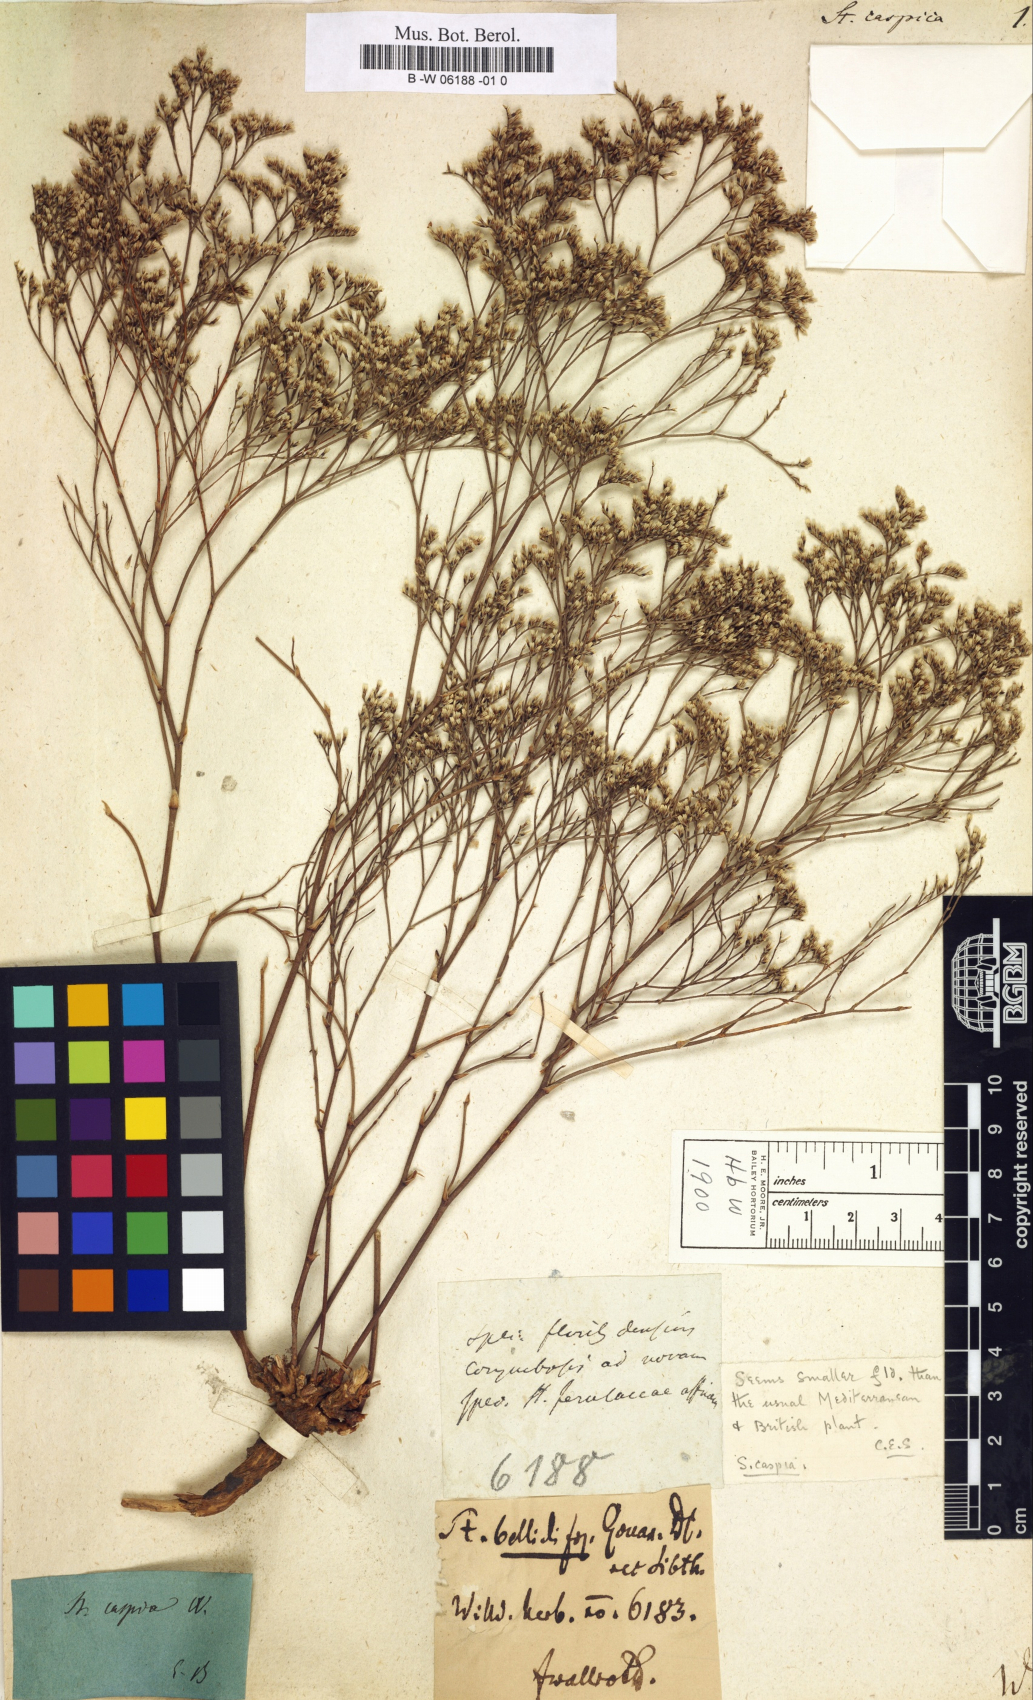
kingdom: Plantae
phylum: Tracheophyta
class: Magnoliopsida
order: Caryophyllales
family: Plumbaginaceae
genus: Limonium
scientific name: Limonium bellidifolium
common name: Matted sea-lavender
